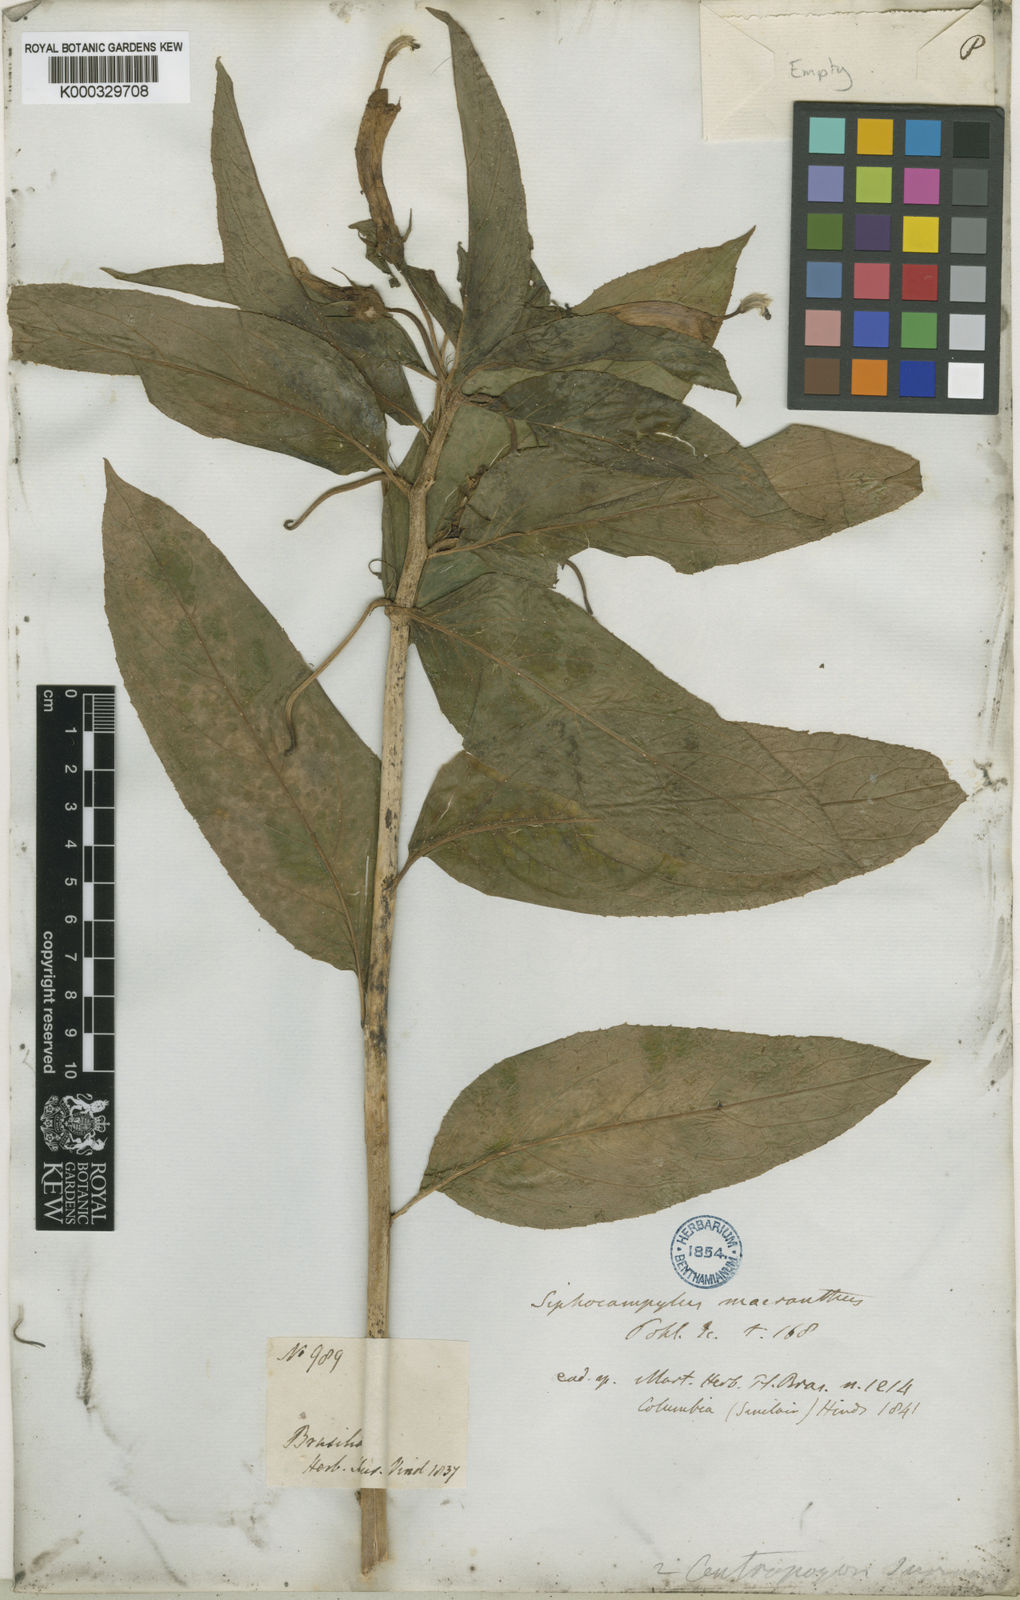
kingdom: Plantae
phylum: Tracheophyta
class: Magnoliopsida
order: Asterales
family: Campanulaceae
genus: Centropogon
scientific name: Centropogon cornutus
